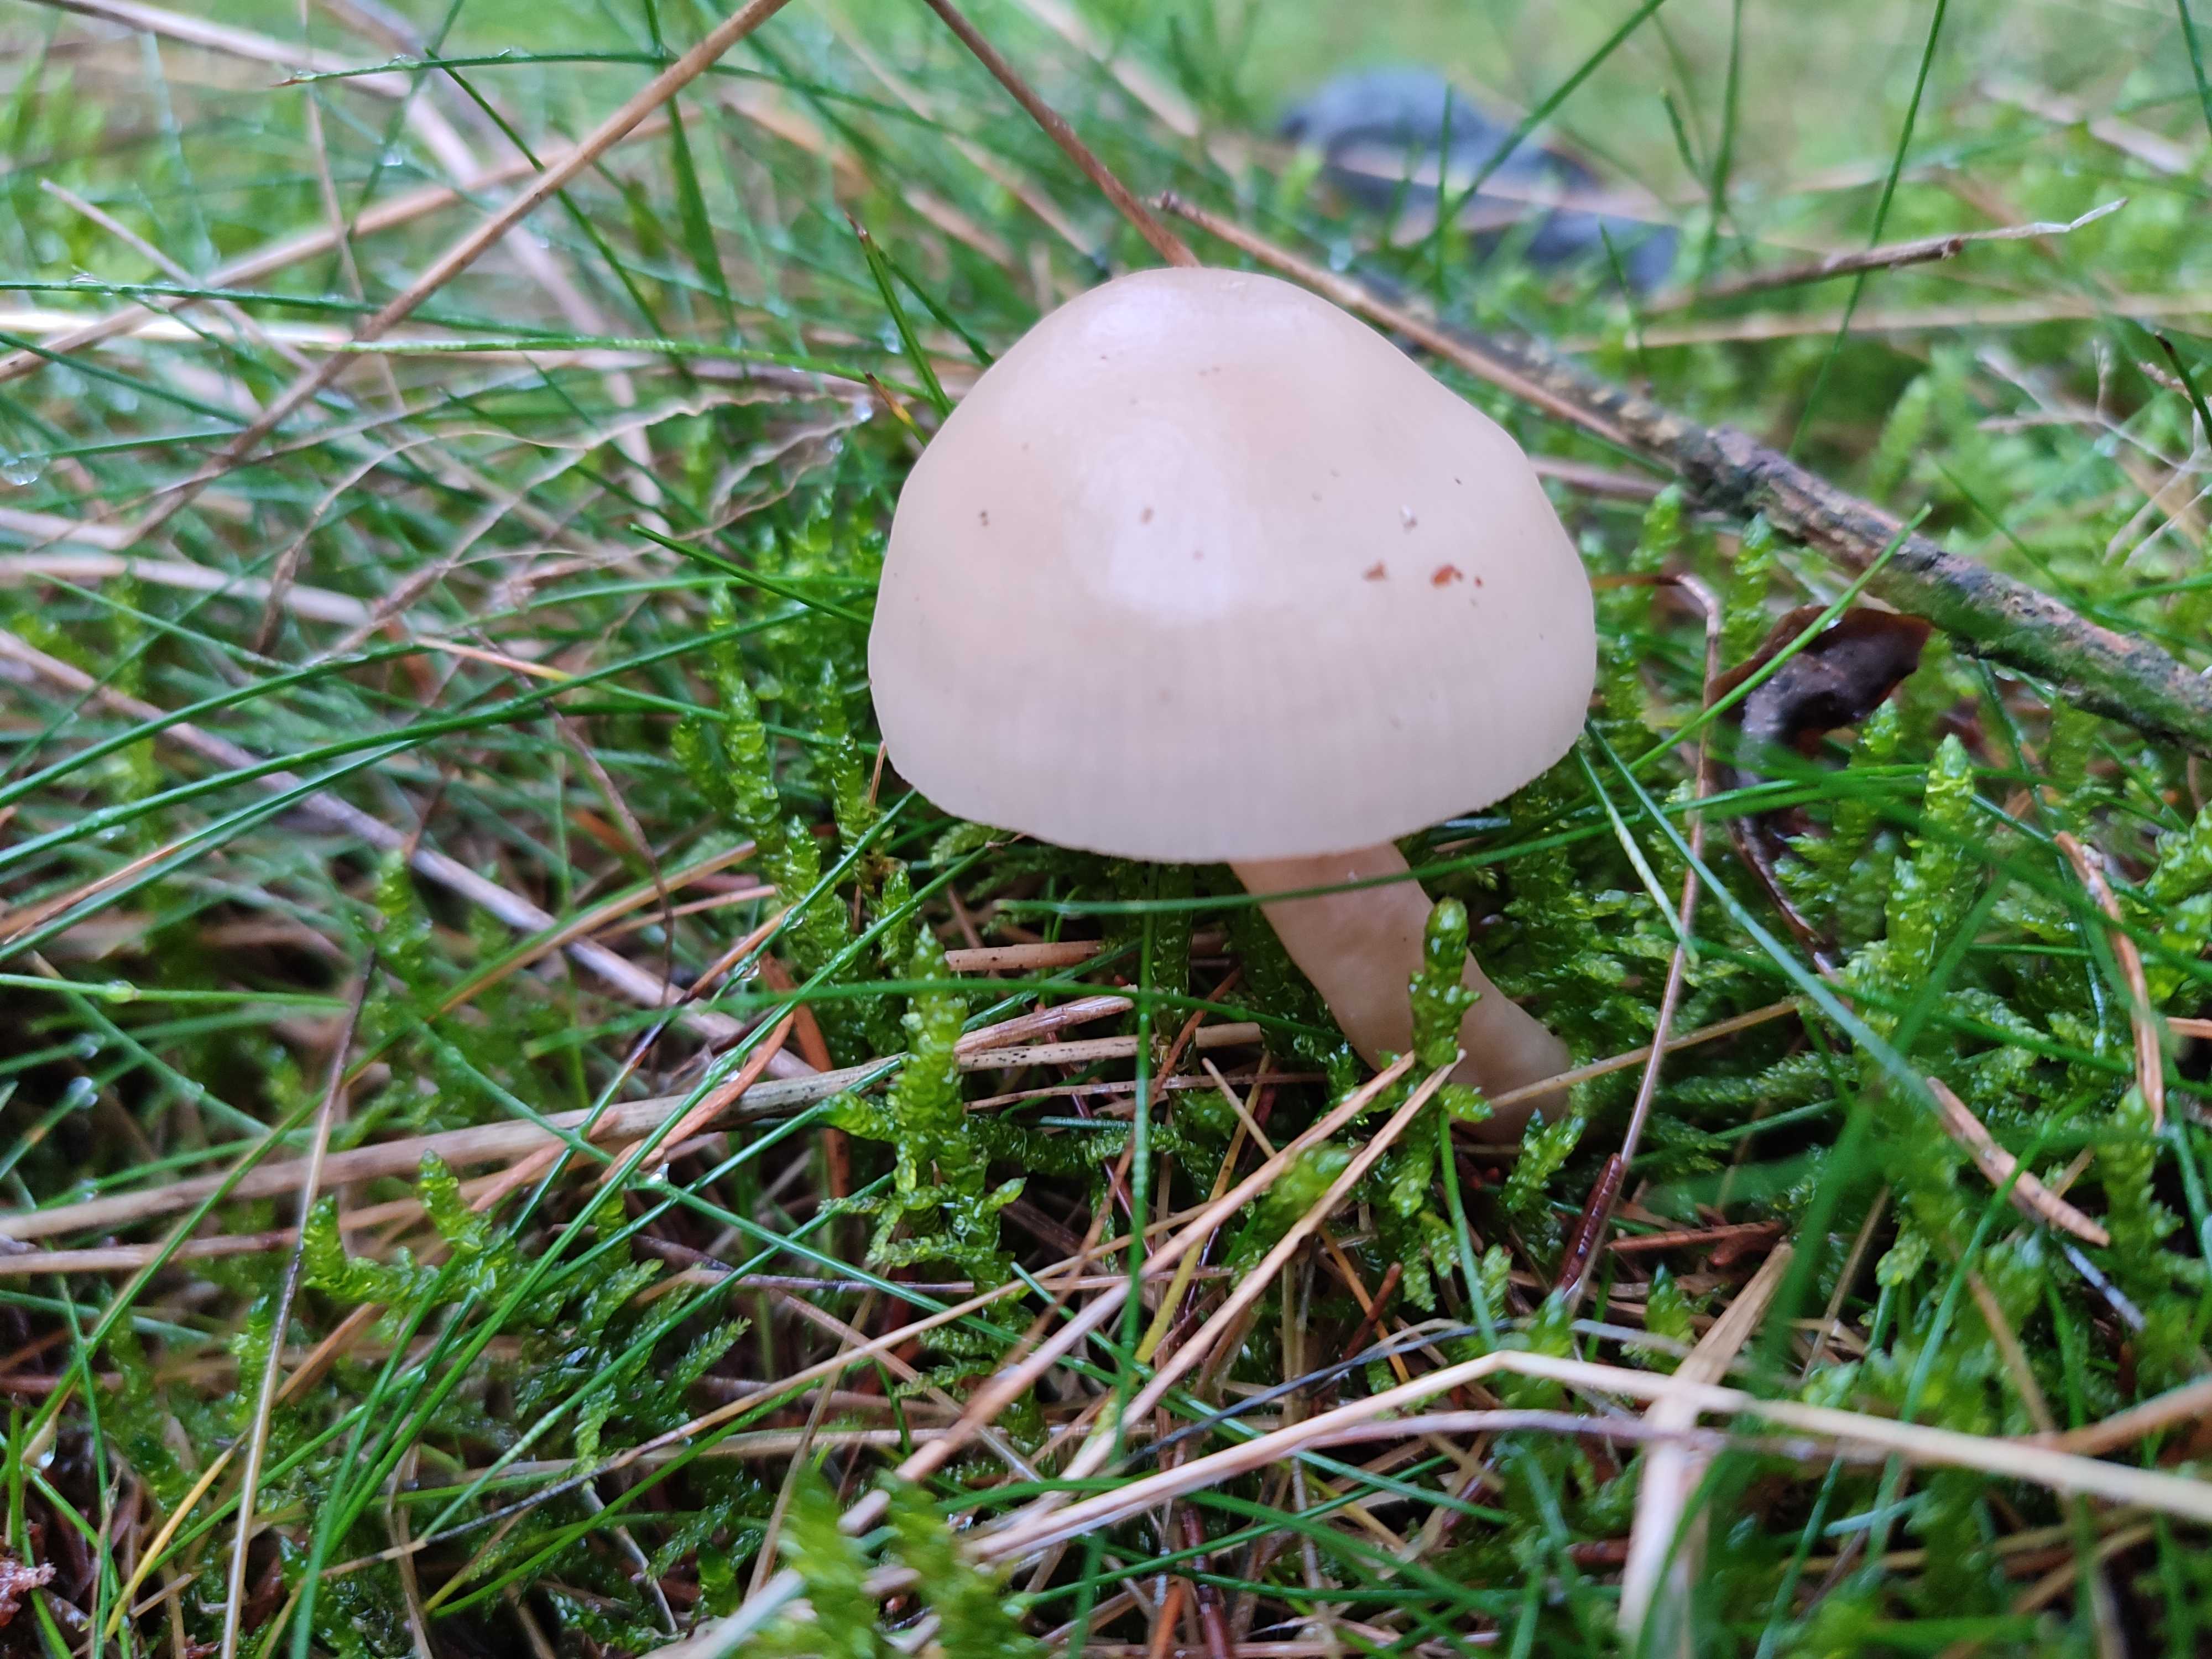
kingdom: Fungi
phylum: Basidiomycota
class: Agaricomycetes
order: Agaricales
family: Tricholomataceae
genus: Clitocybe
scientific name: Clitocybe fragrans
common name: vellugtende tragthat
